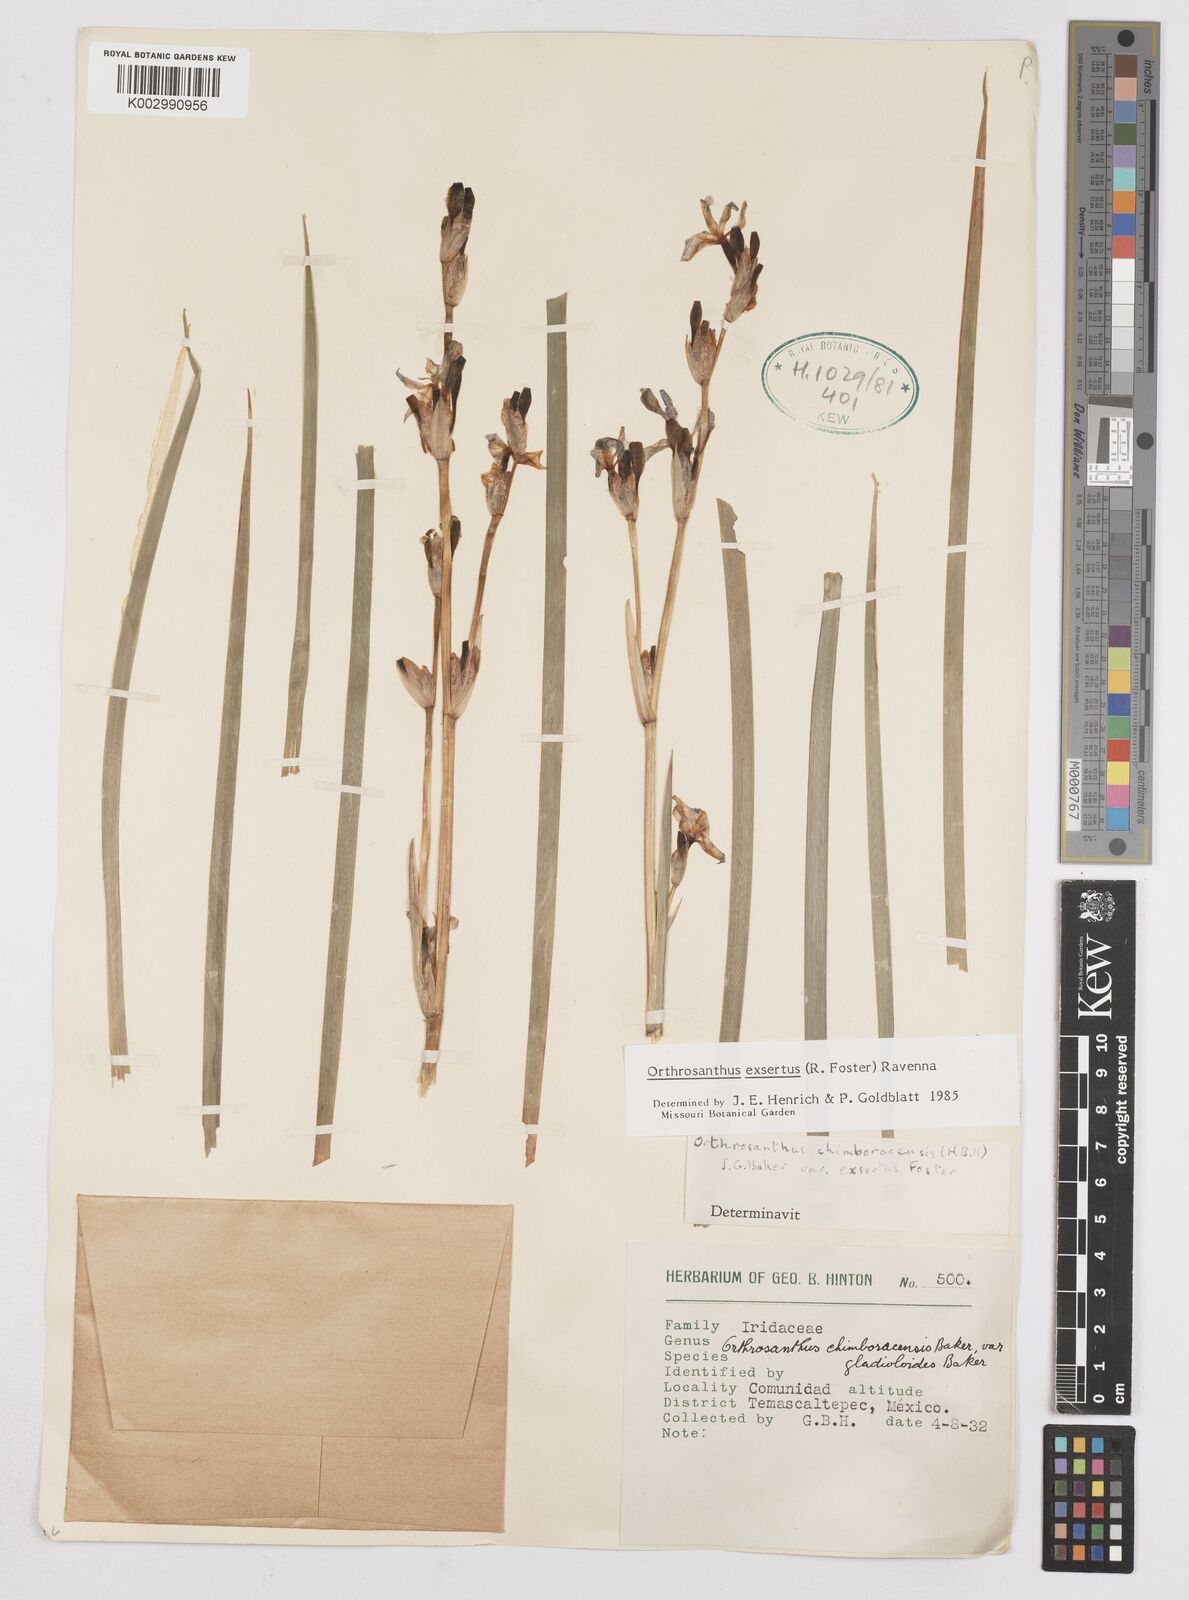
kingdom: Plantae
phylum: Tracheophyta
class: Liliopsida
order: Asparagales
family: Iridaceae
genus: Orthrosanthus
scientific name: Orthrosanthus exsertus
